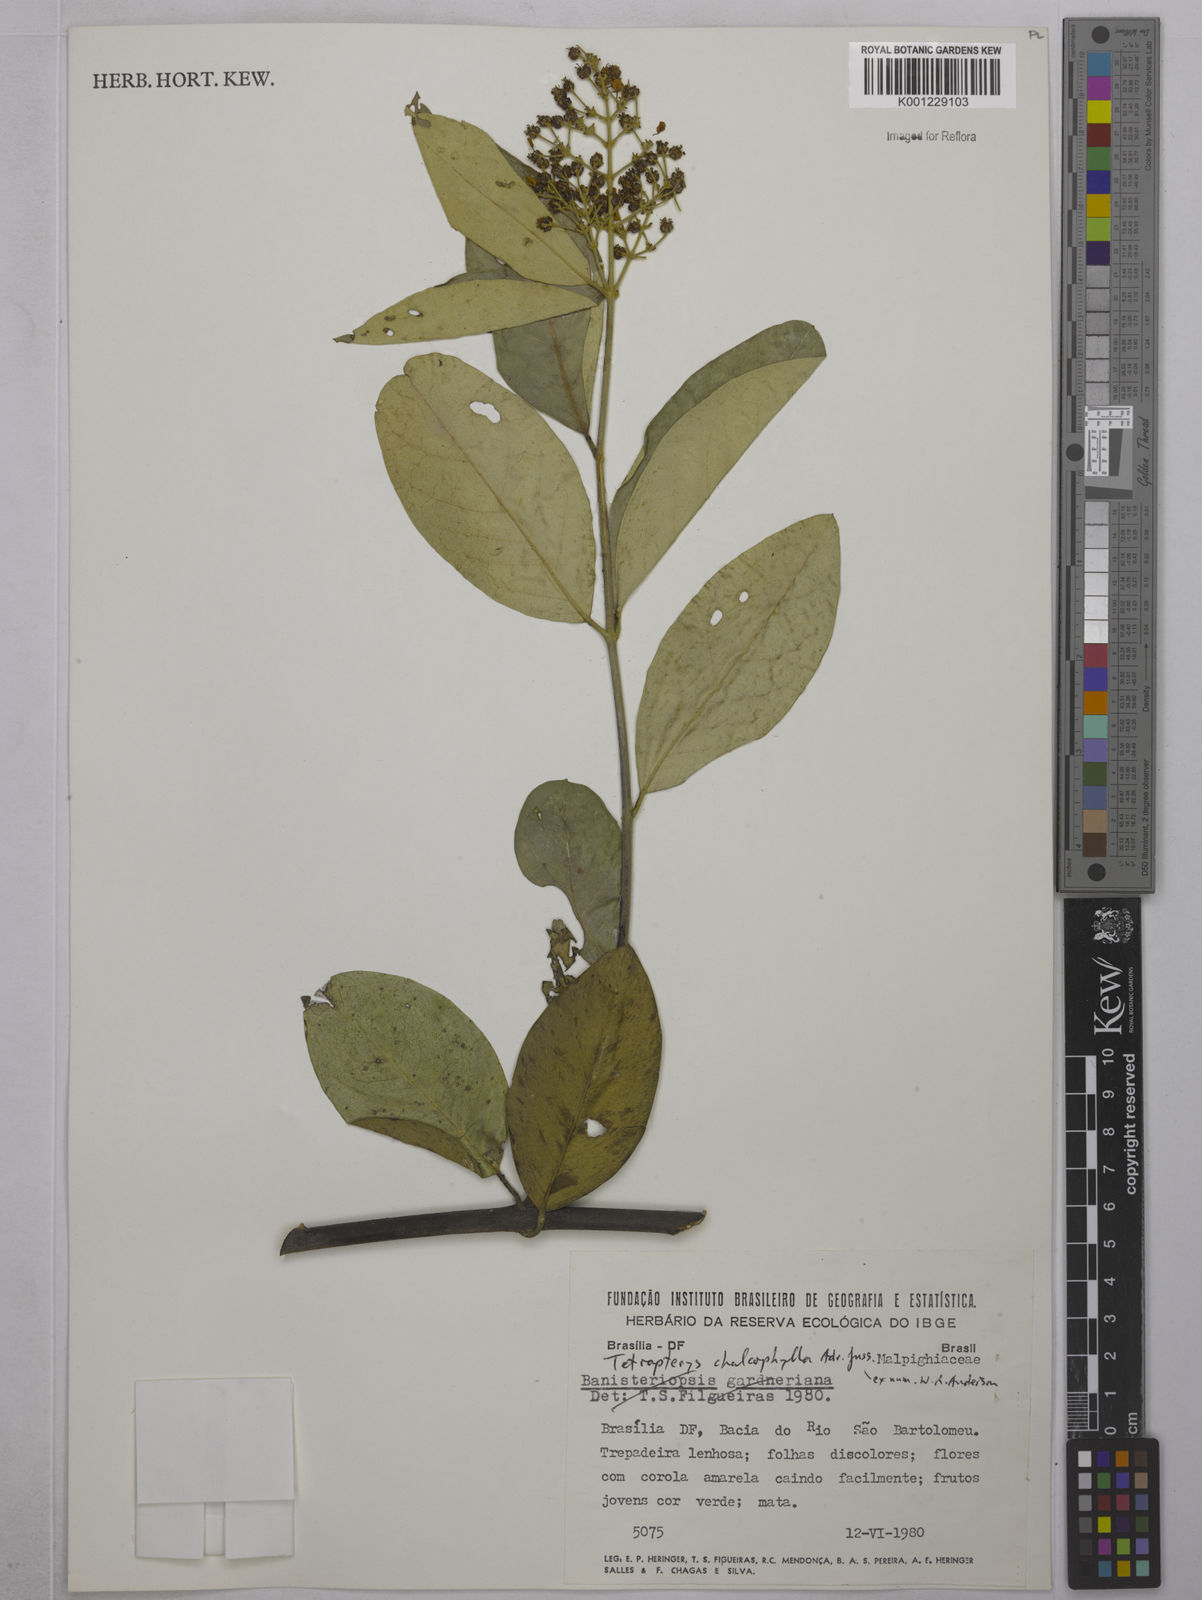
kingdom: Plantae
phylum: Tracheophyta
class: Magnoliopsida
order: Malpighiales
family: Malpighiaceae
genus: Niedenzuella
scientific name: Niedenzuella sericea
